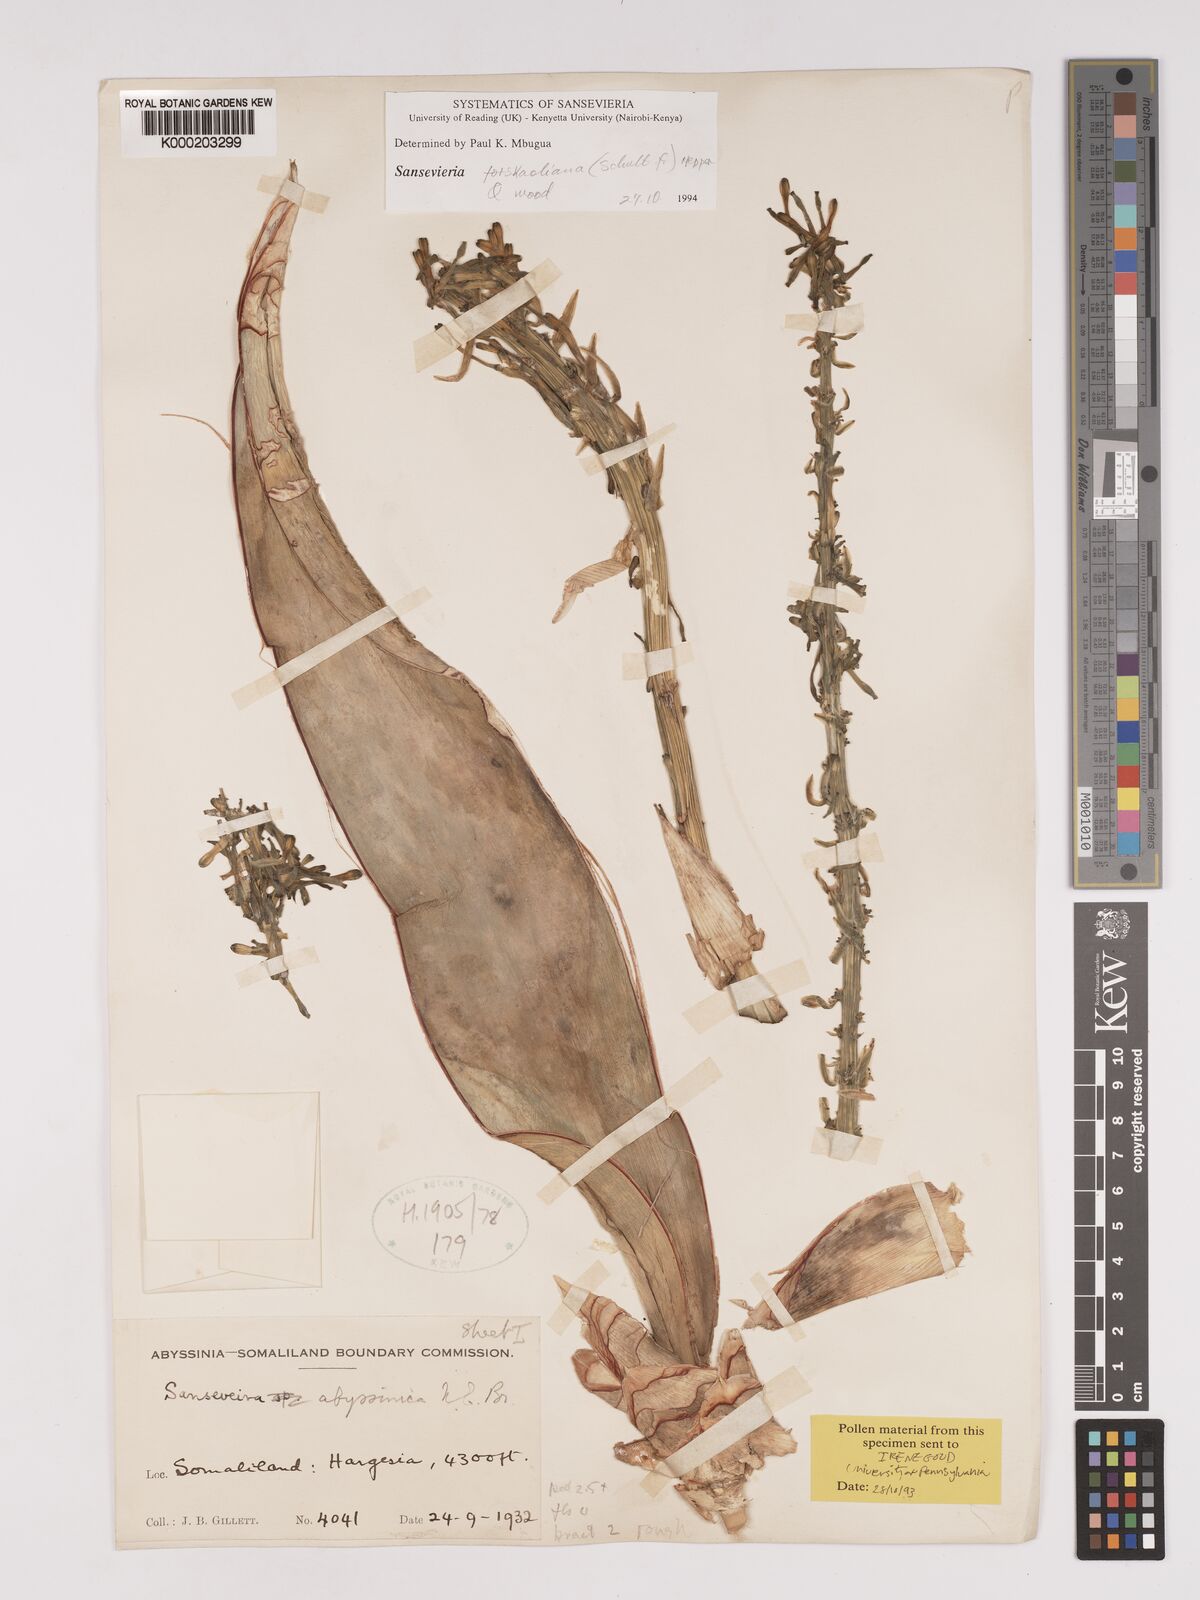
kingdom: Plantae
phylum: Tracheophyta
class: Liliopsida
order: Asparagales
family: Asparagaceae
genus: Dracaena
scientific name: Dracaena forskaliana
